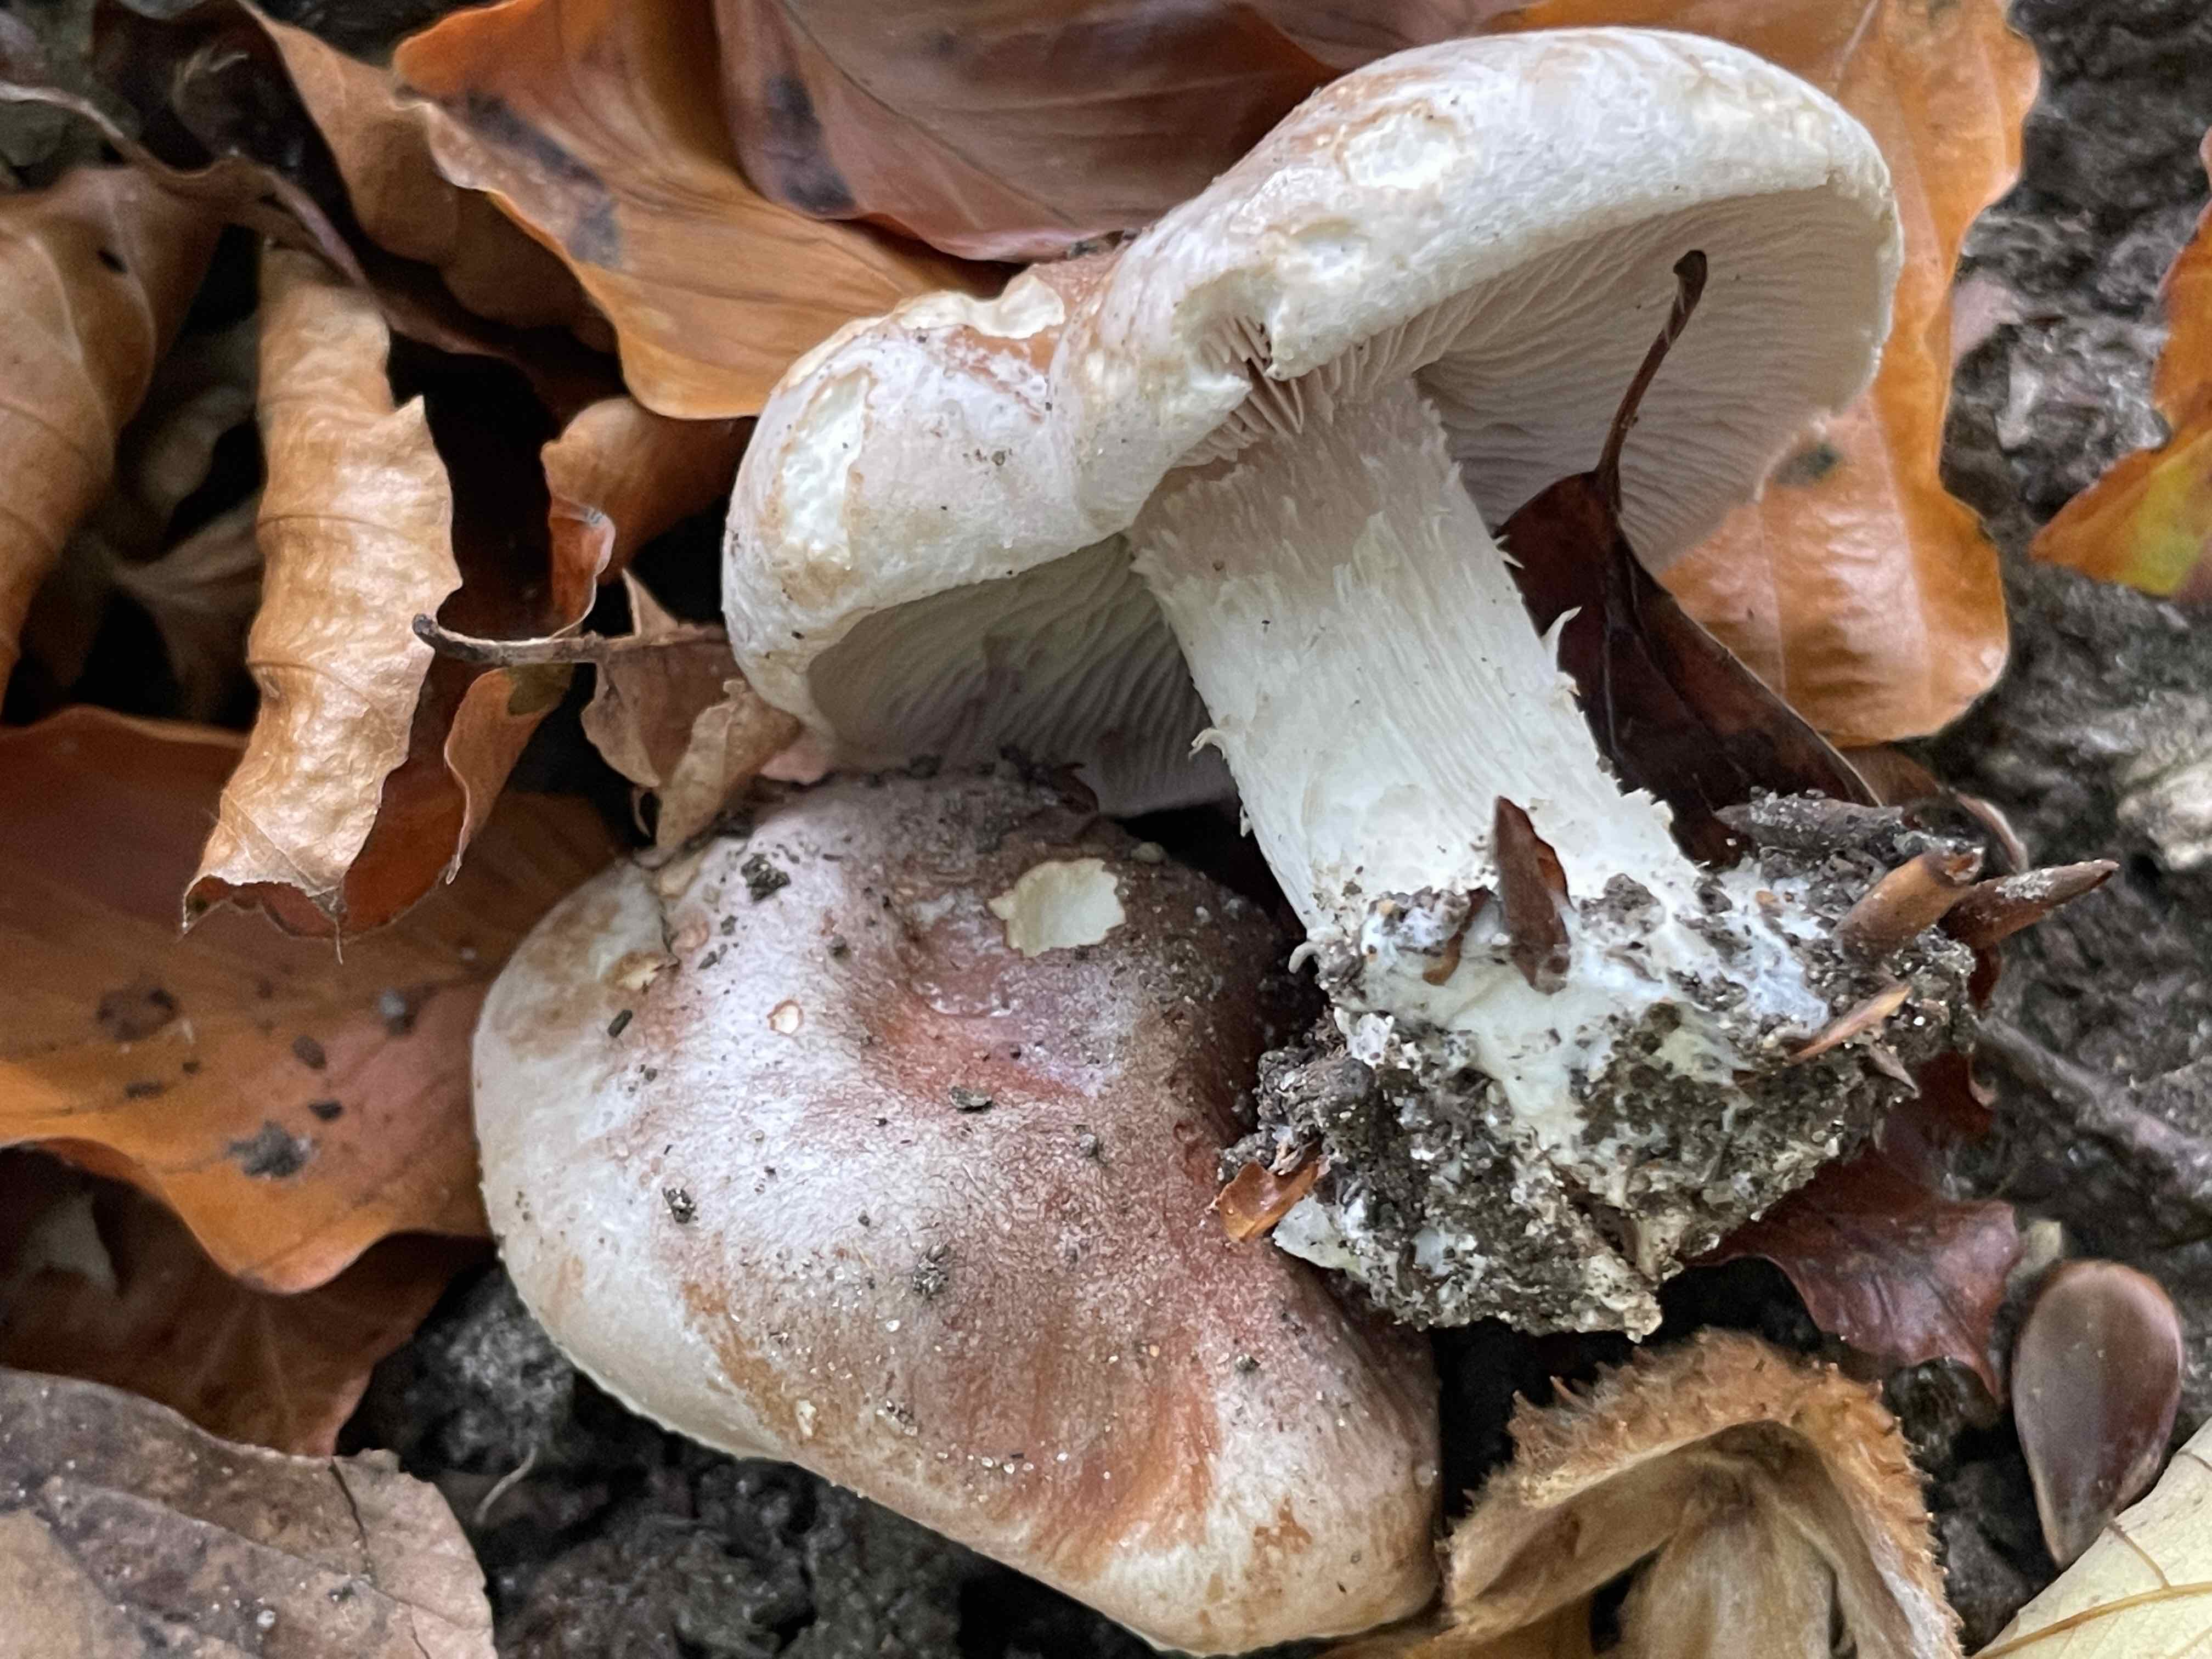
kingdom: Fungi
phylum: Basidiomycota
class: Agaricomycetes
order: Agaricales
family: Hymenogastraceae
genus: Hebeloma
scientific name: Hebeloma theobrominum
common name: rødbrun tåreblad
